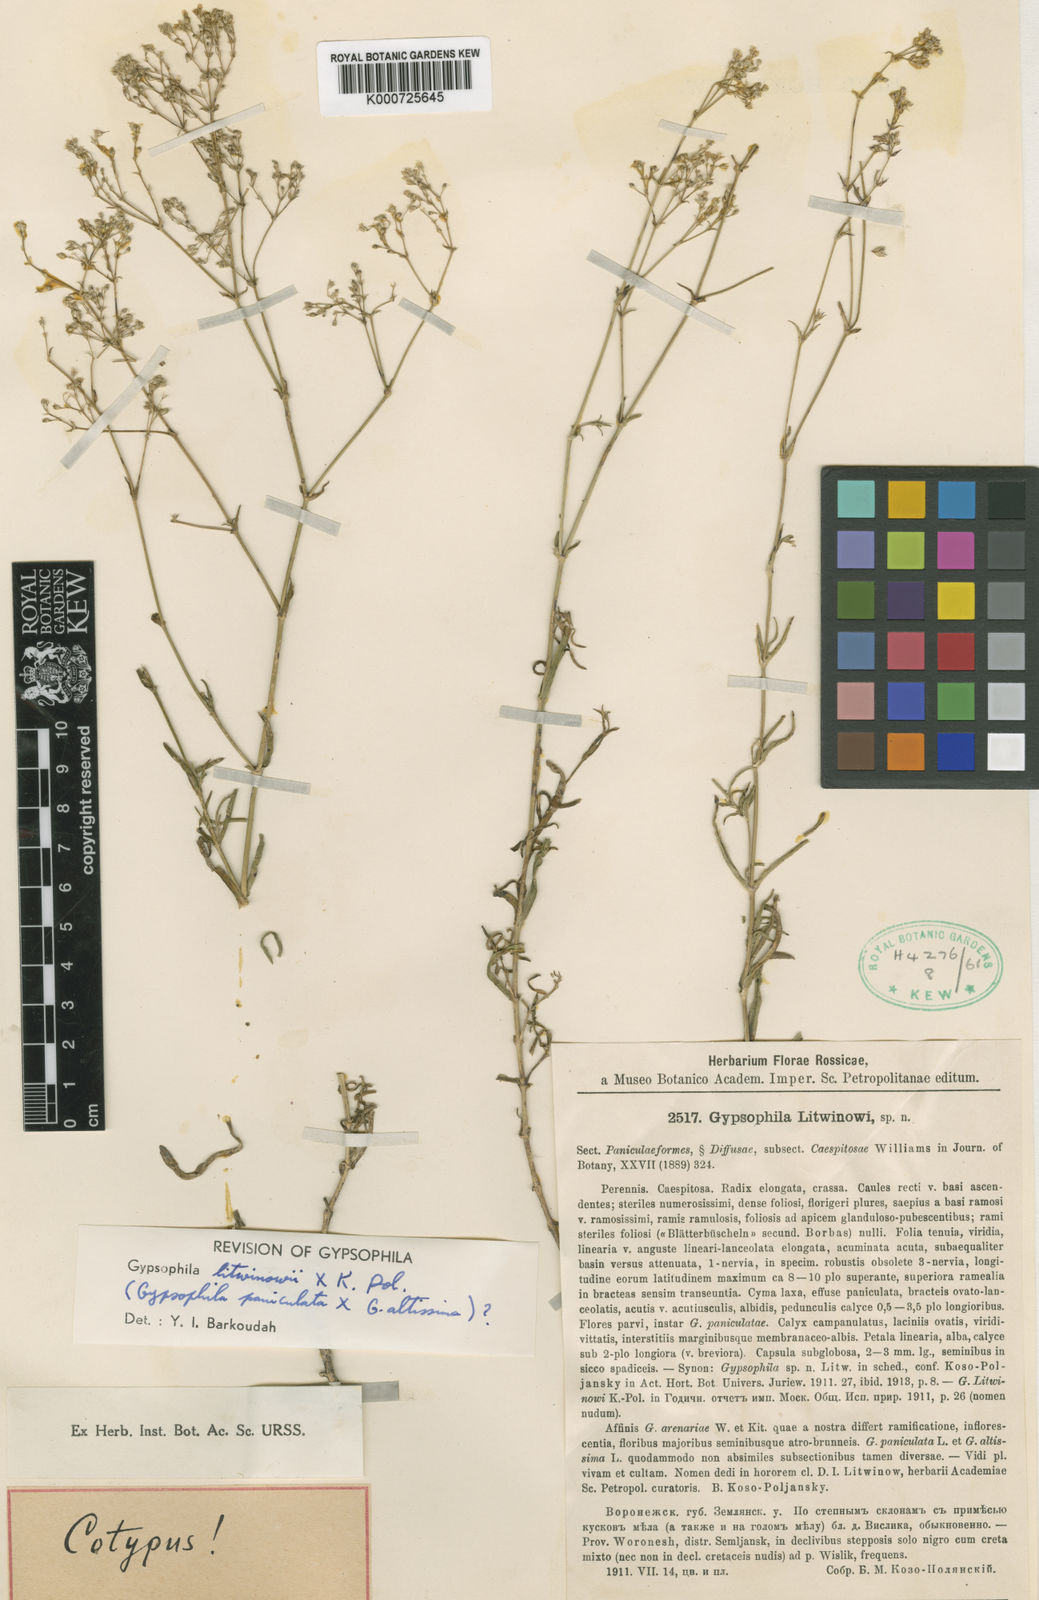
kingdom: Plantae
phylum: Tracheophyta
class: Magnoliopsida
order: Caryophyllales
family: Caryophyllaceae
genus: Gypsophila
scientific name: Gypsophila altissima
